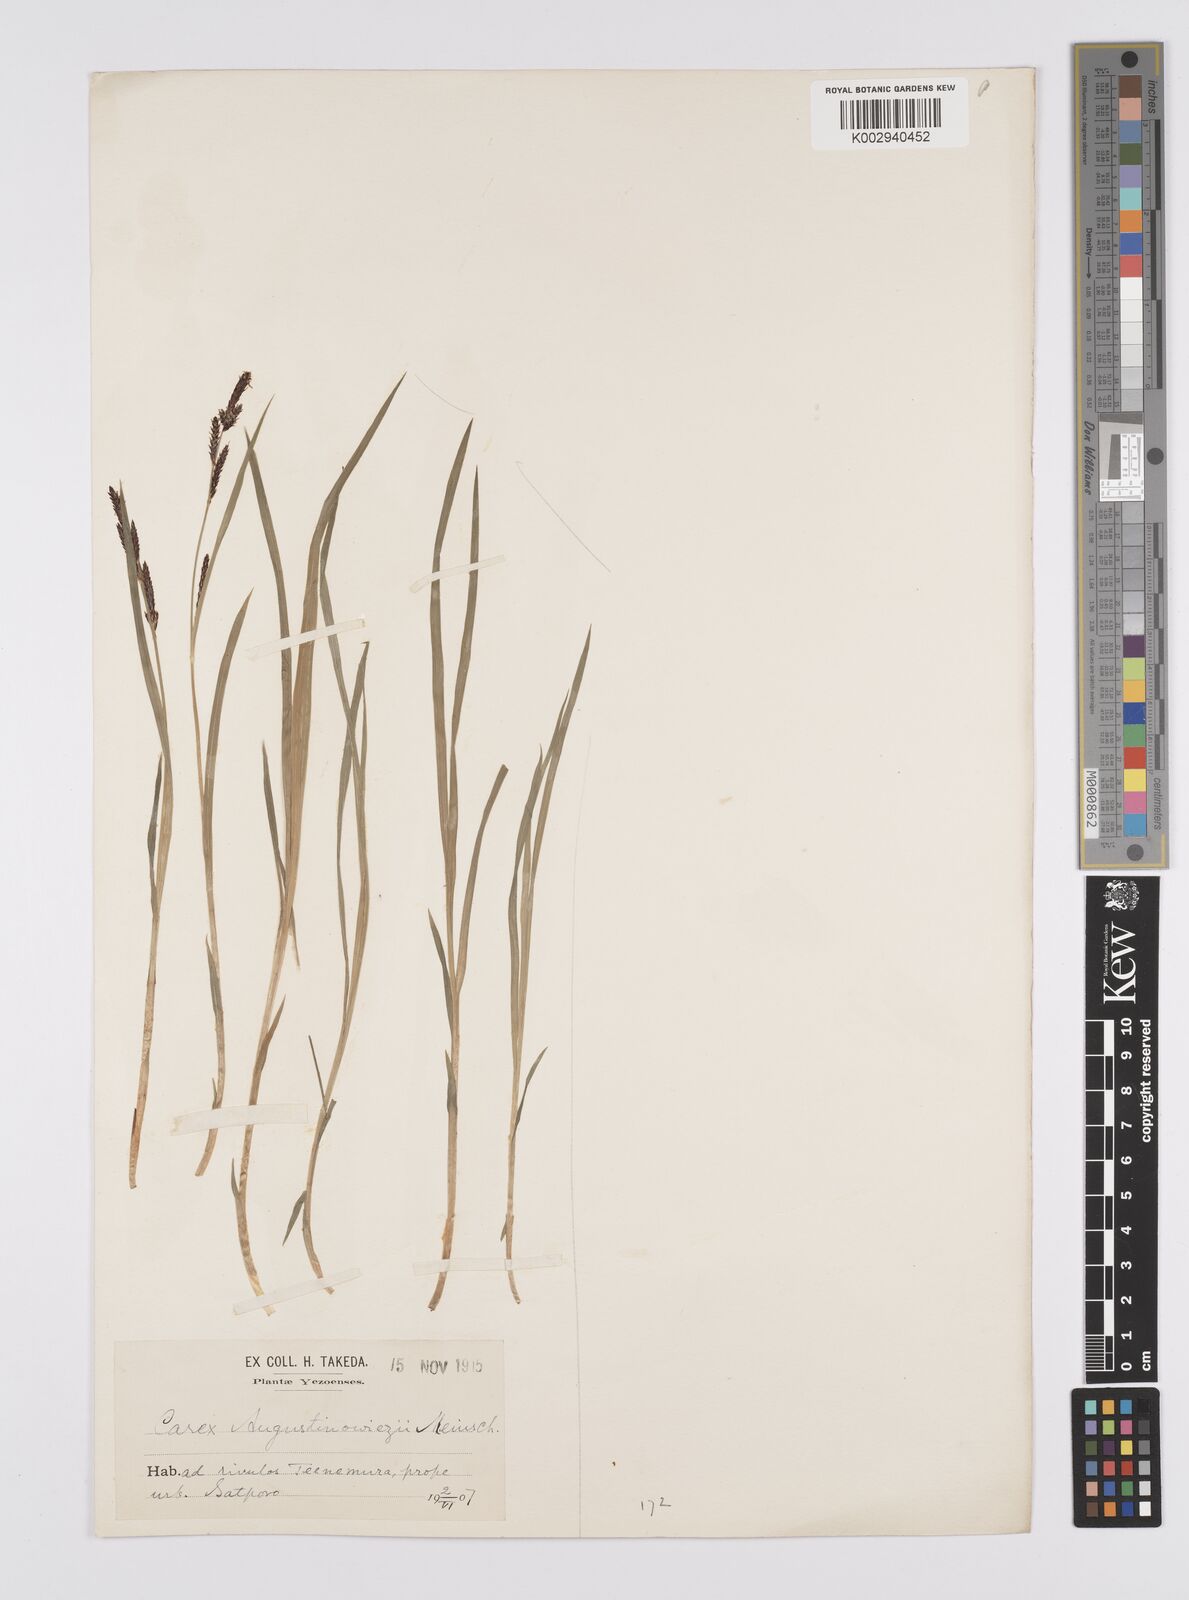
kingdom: Plantae
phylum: Tracheophyta
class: Liliopsida
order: Poales
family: Cyperaceae
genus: Carex
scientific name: Carex augustinowiczii
